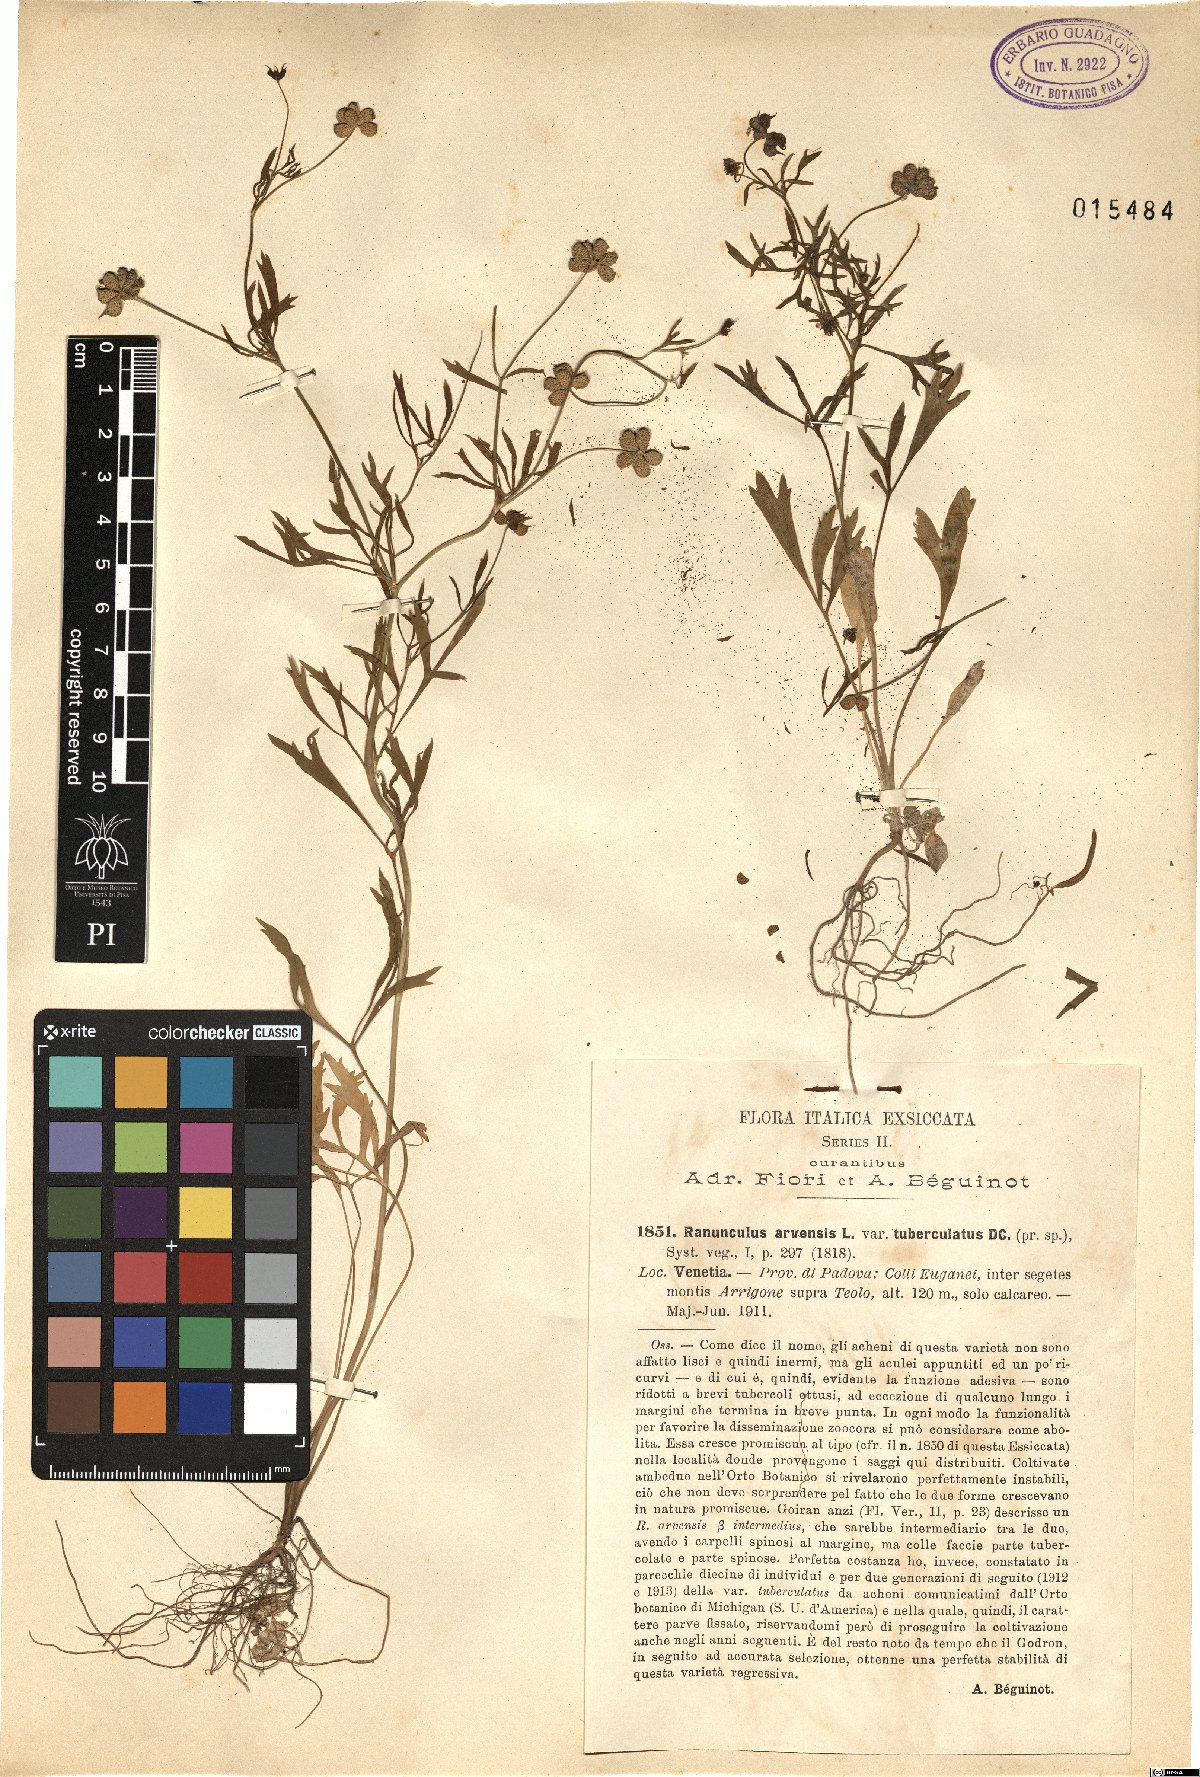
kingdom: Plantae
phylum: Tracheophyta
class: Magnoliopsida
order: Ranunculales
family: Ranunculaceae
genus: Ranunculus
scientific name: Ranunculus arvensis
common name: Corn buttercup
